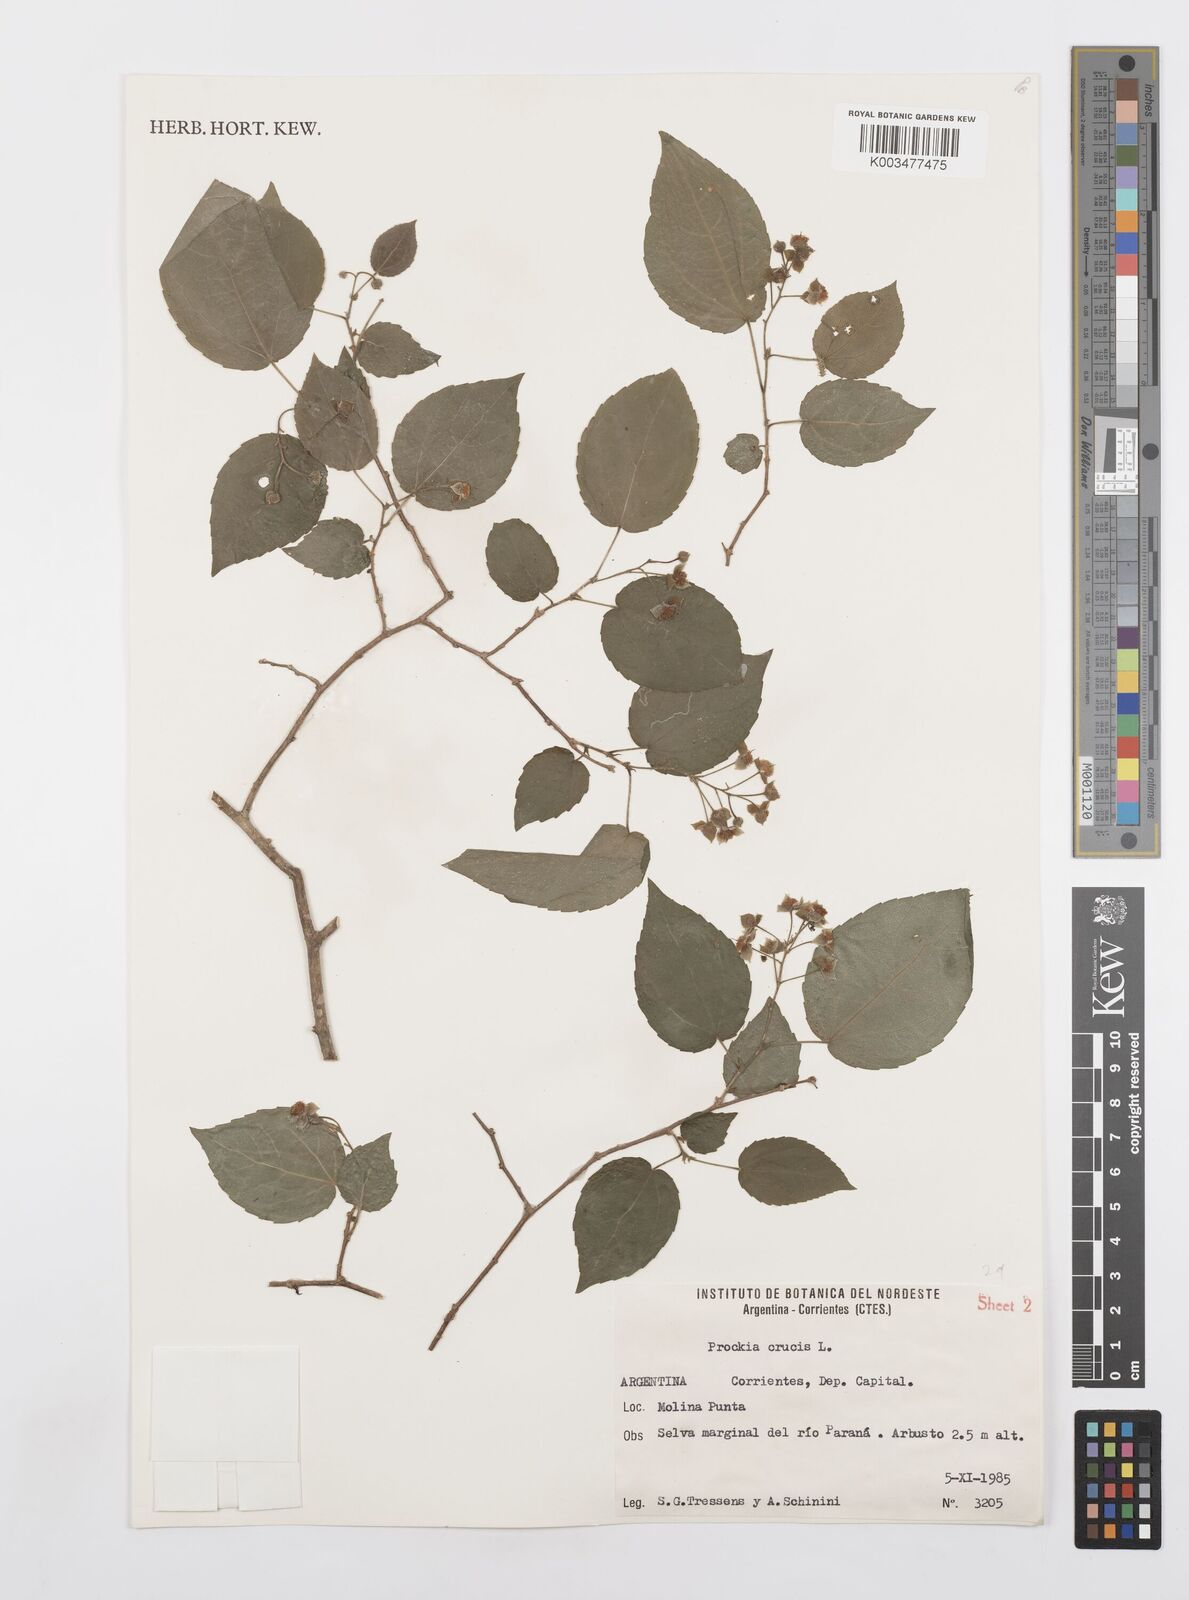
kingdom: Plantae
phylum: Tracheophyta
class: Magnoliopsida
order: Malpighiales
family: Salicaceae
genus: Prockia
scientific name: Prockia crucis
